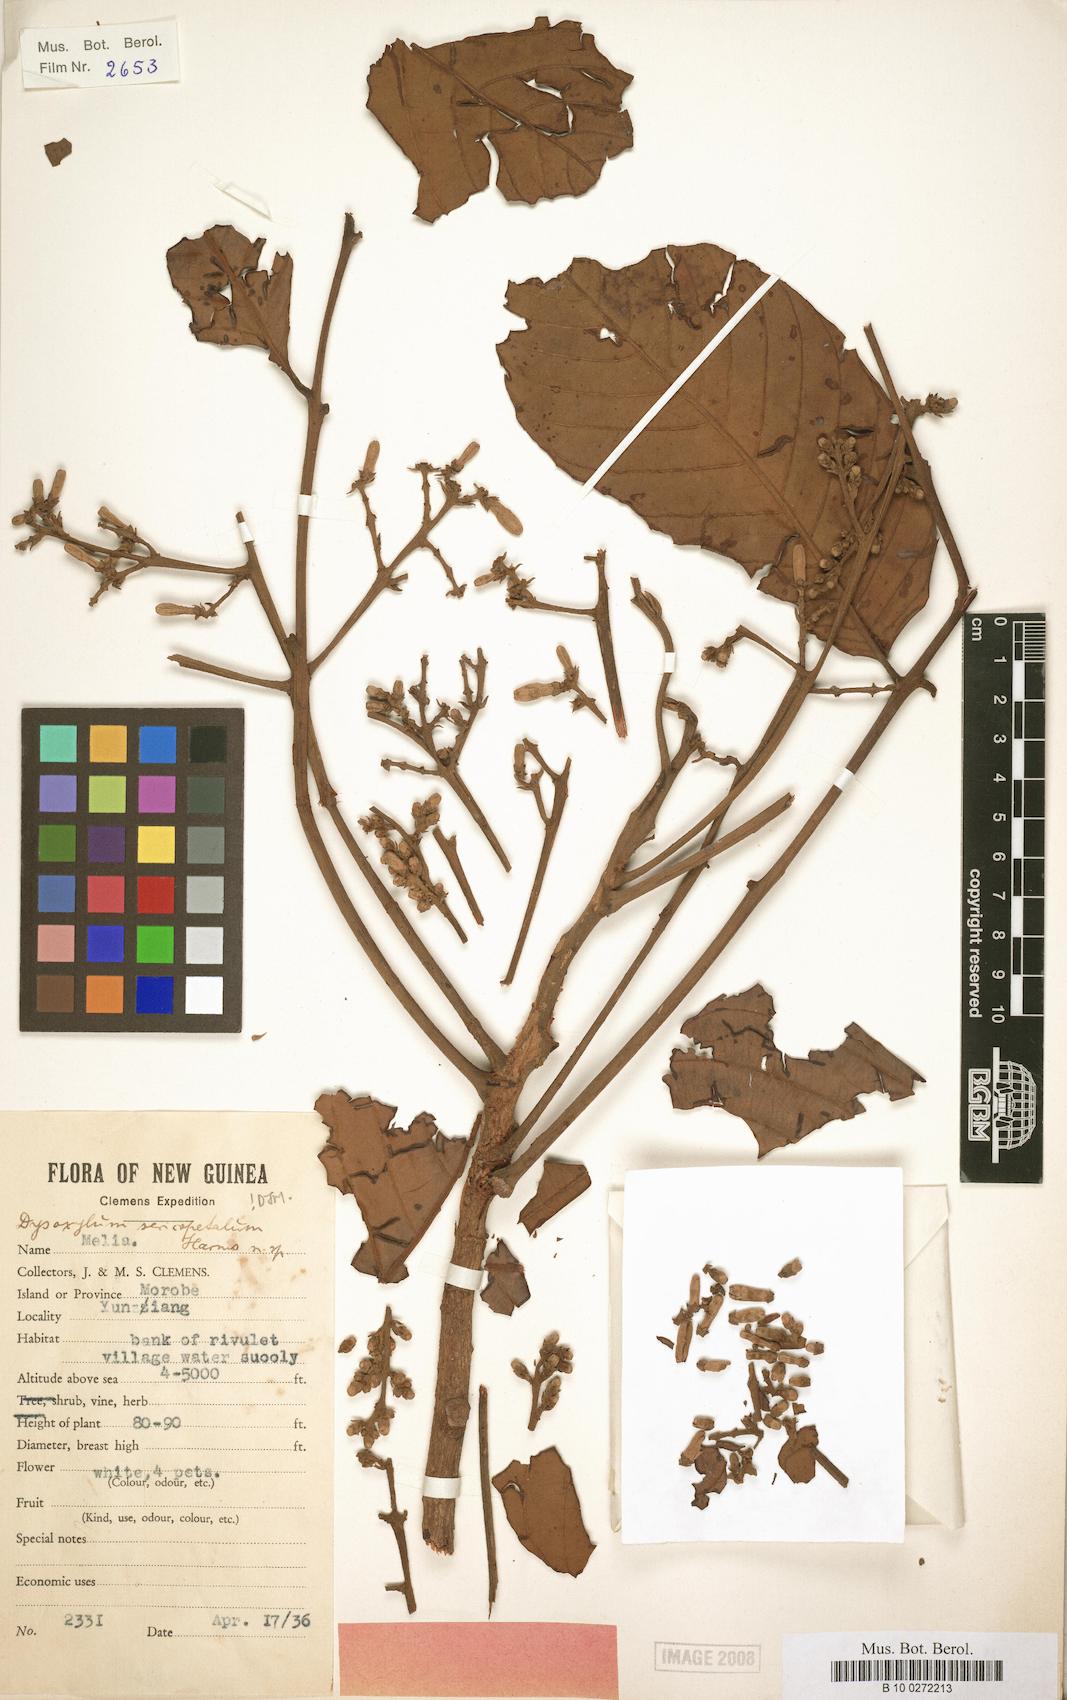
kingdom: Plantae
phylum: Tracheophyta
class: Magnoliopsida
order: Sapindales
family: Meliaceae
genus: Dysoxylum
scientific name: Dysoxylum randianum
